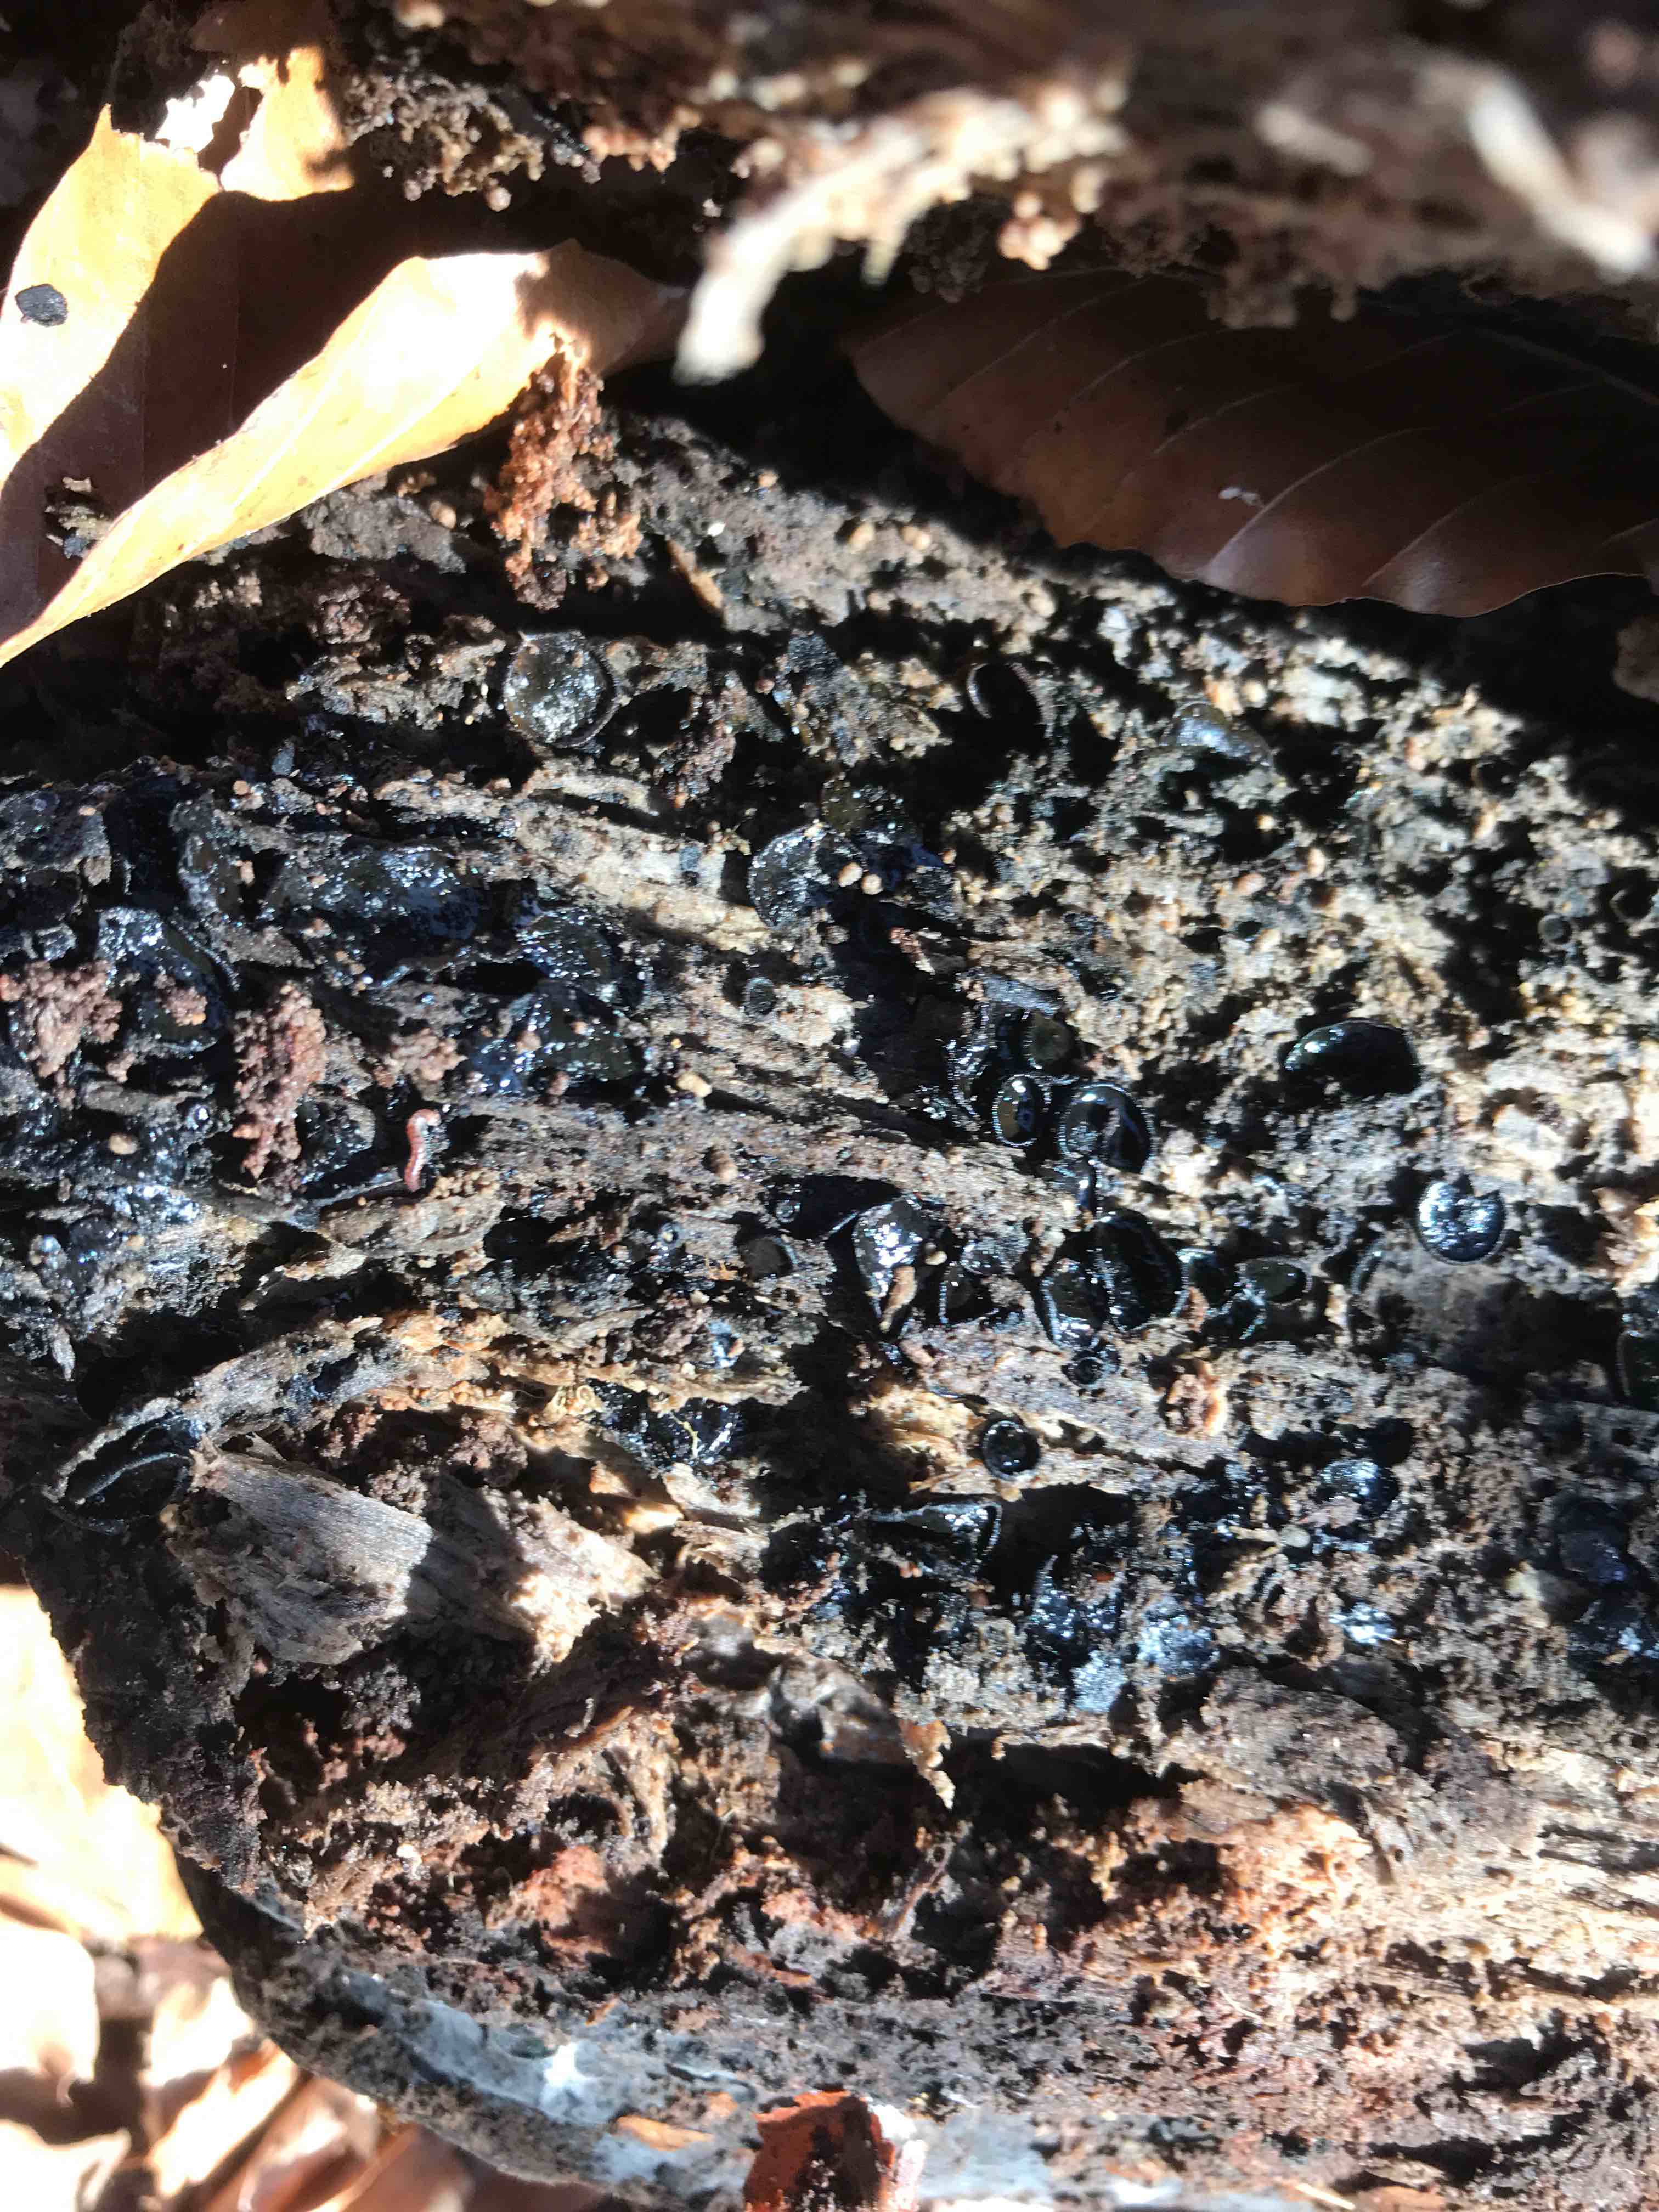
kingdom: Fungi
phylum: Ascomycota
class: Dothideomycetes
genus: Catinella
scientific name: Catinella olivacea
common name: olivenskive
